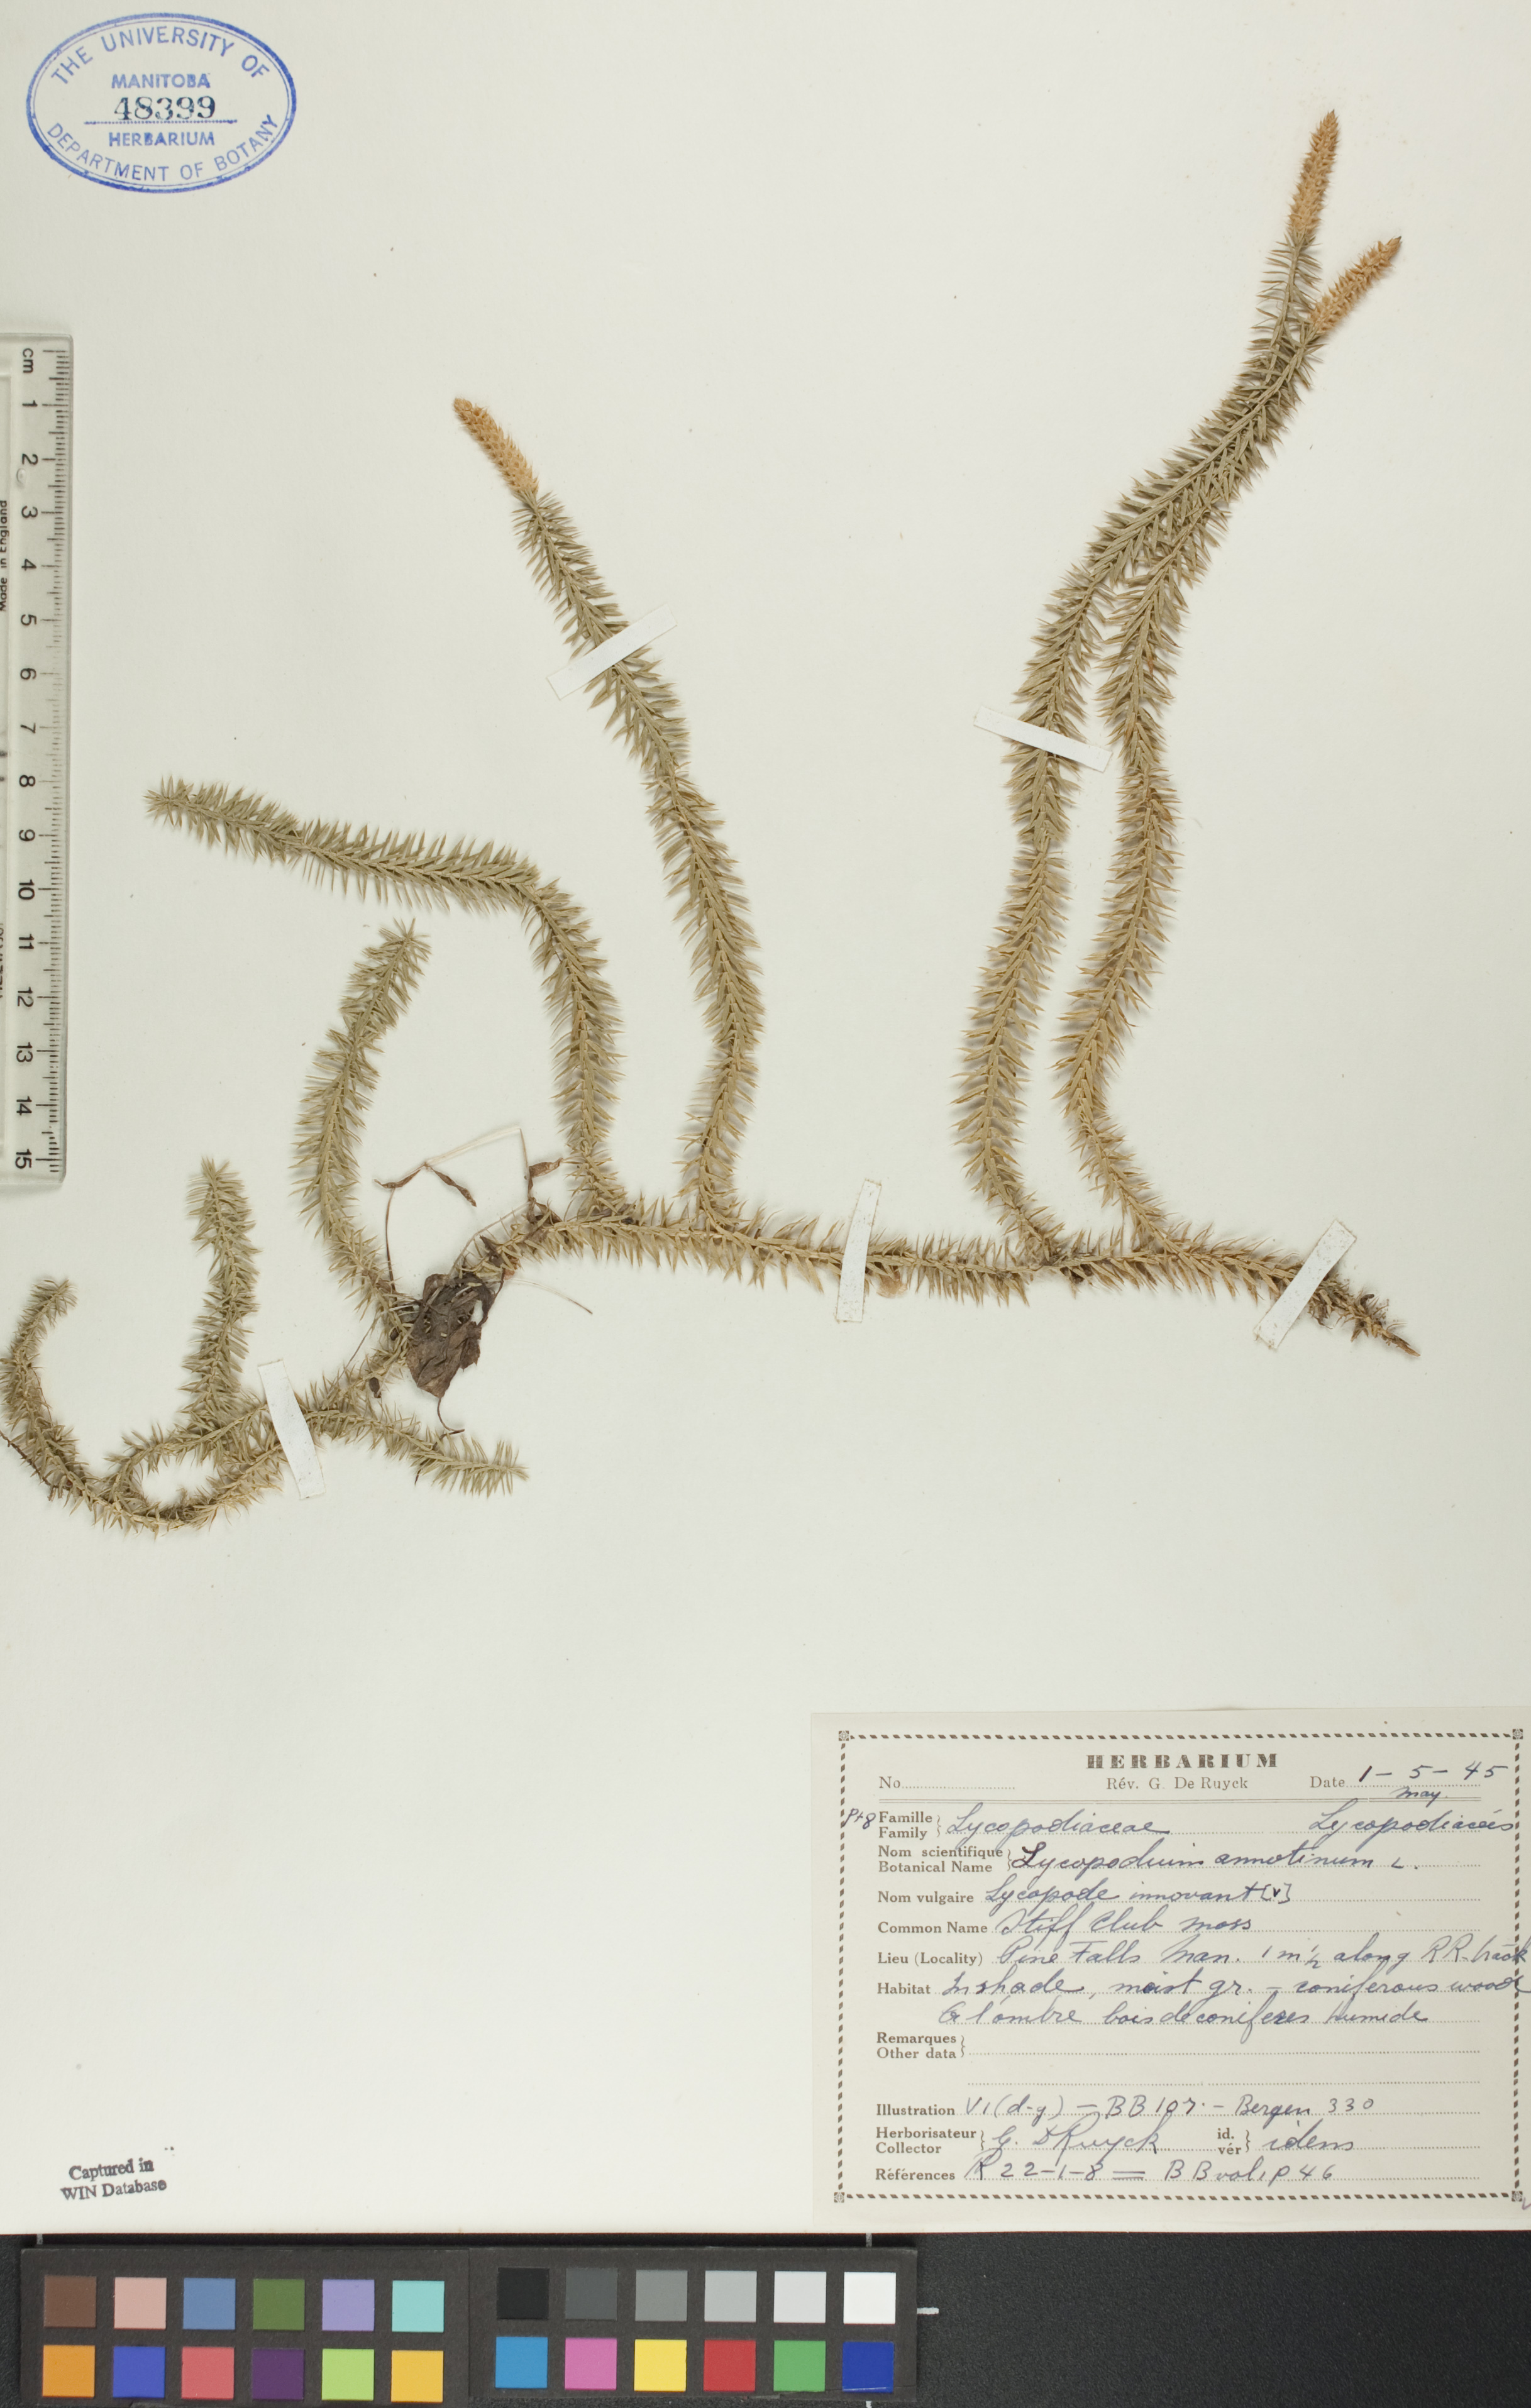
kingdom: Plantae
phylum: Tracheophyta
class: Lycopodiopsida
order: Lycopodiales
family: Lycopodiaceae
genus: Spinulum
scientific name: Spinulum annotinum
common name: Interrupted club-moss
